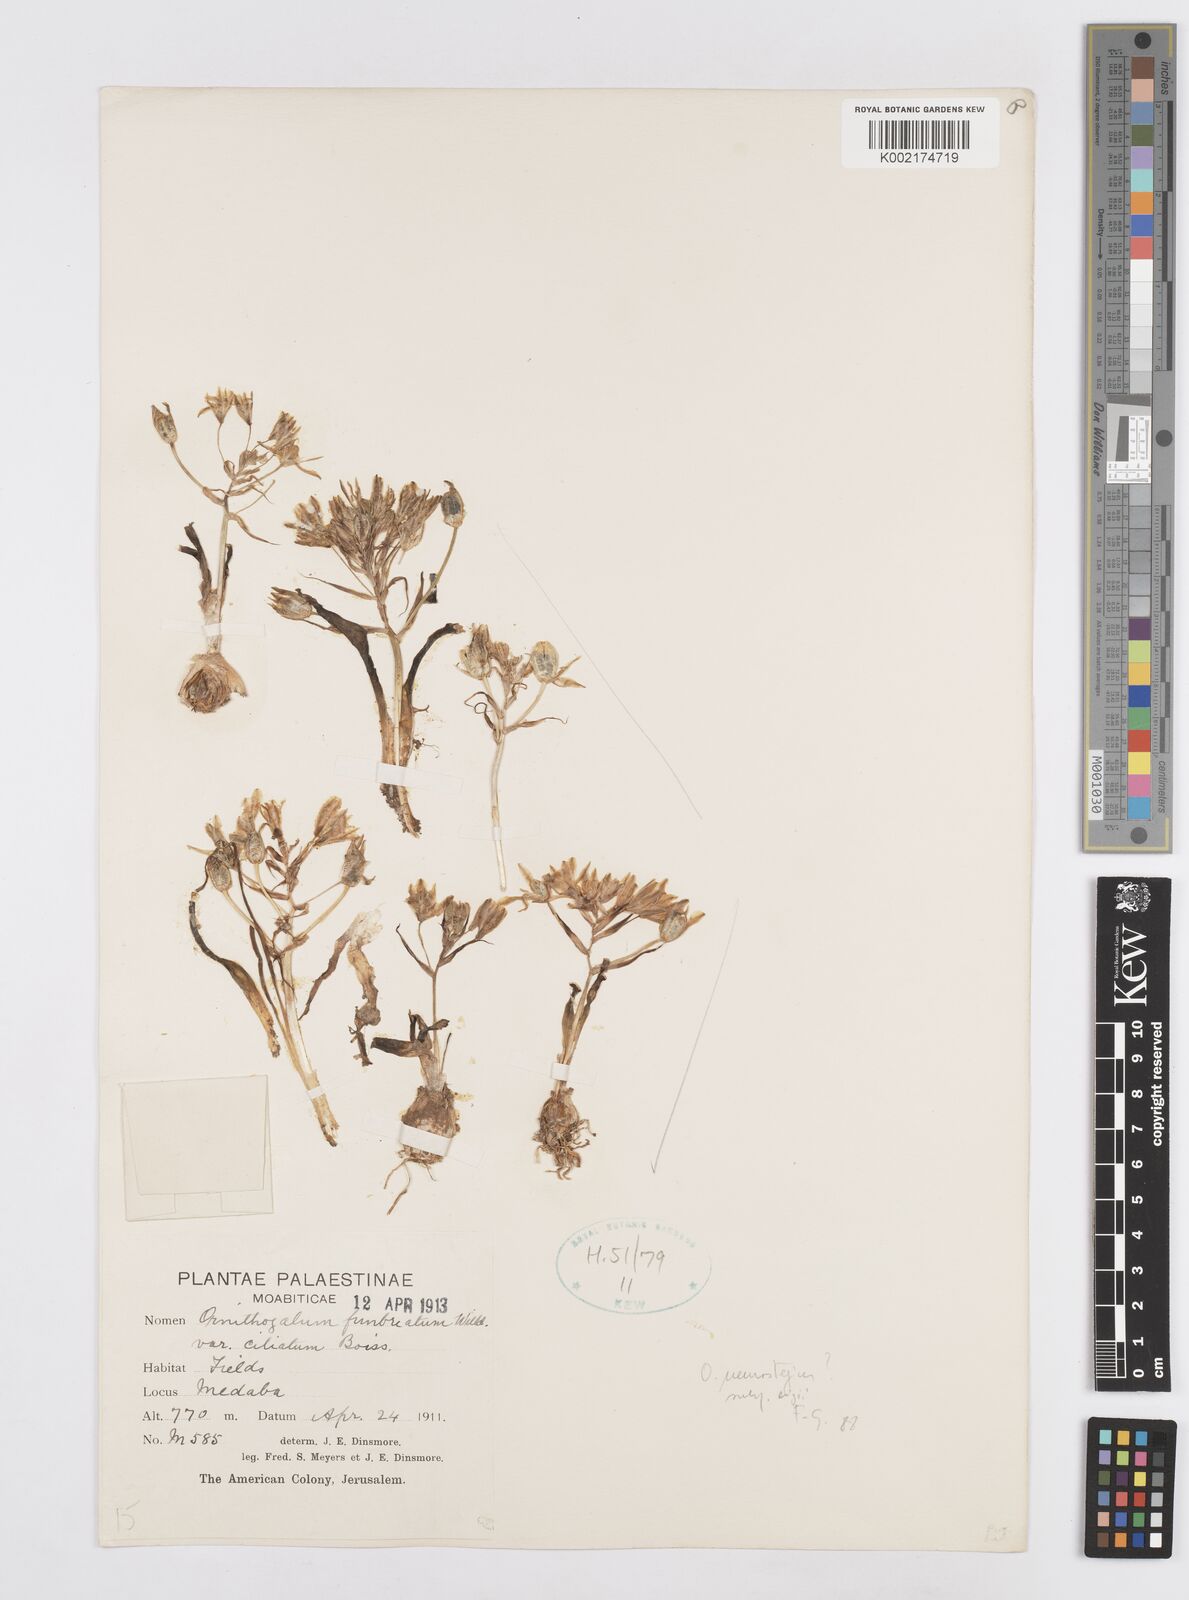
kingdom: Plantae
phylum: Tracheophyta
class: Liliopsida
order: Asparagales
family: Asparagaceae
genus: Ornithogalum
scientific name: Ornithogalum fimbriatum
